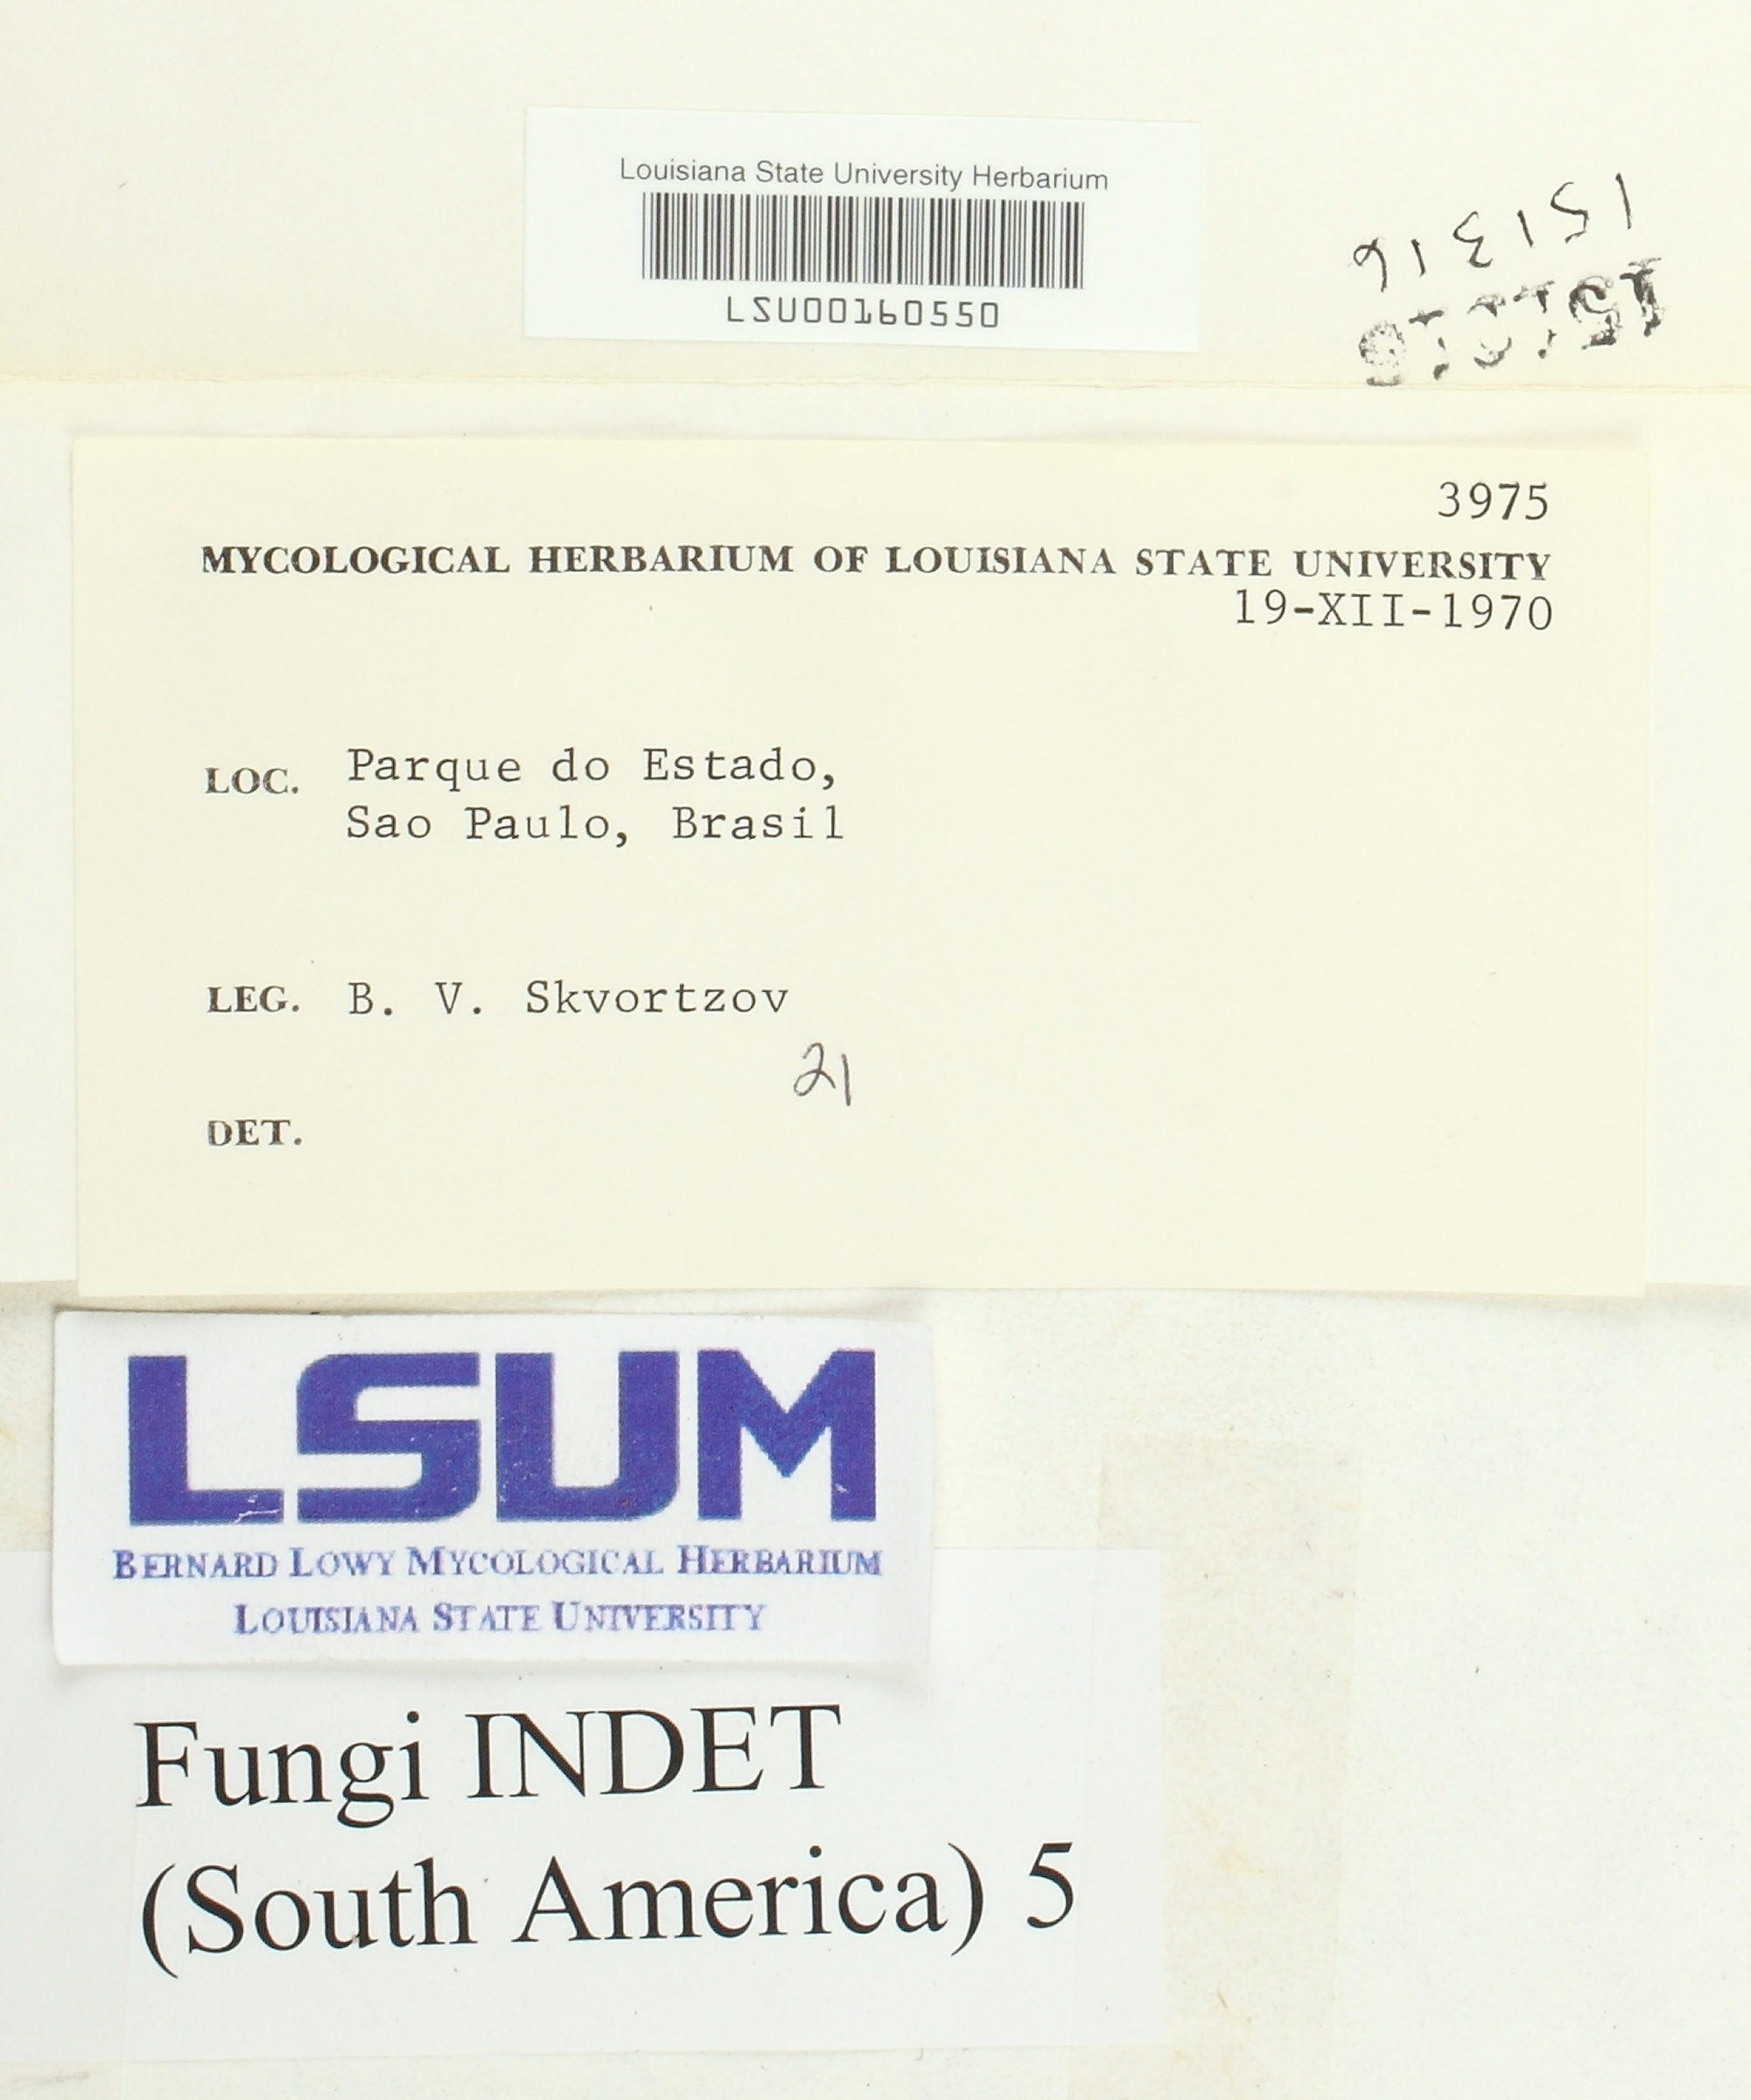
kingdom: Fungi
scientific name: Fungi
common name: Fungi
